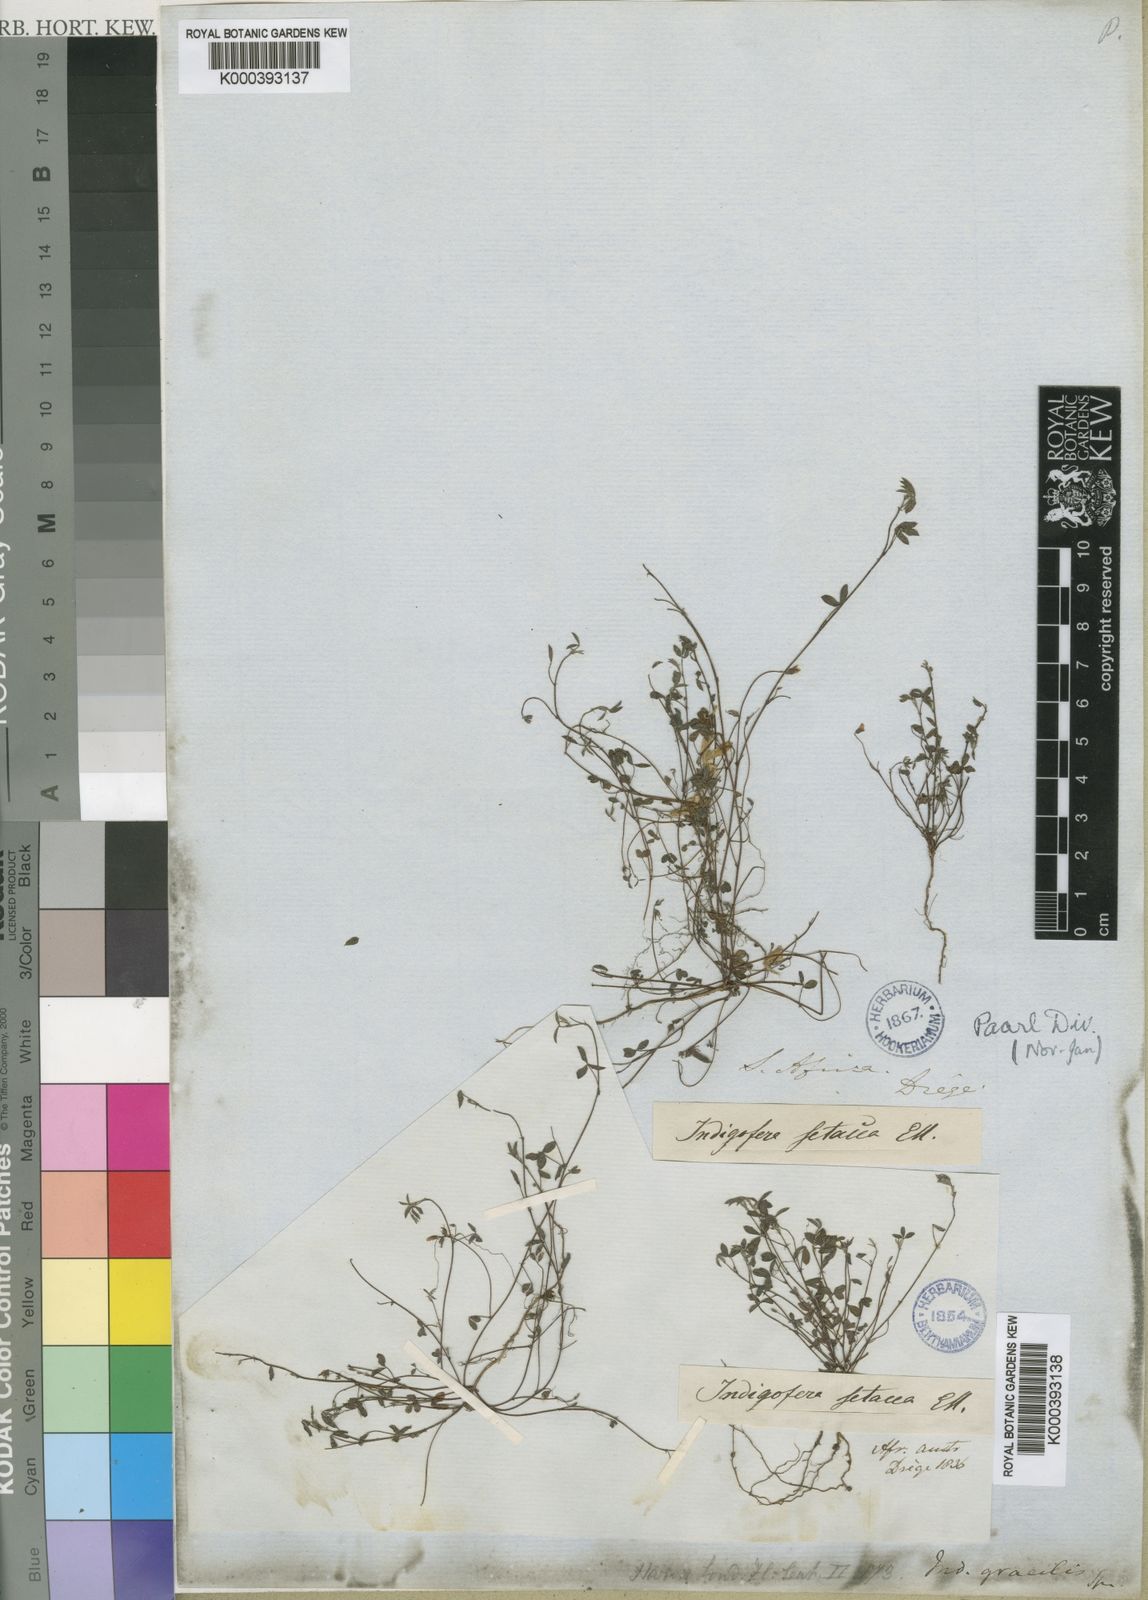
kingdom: Plantae
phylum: Tracheophyta
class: Magnoliopsida
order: Fabales
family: Fabaceae
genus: Indigofera
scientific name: Indigofera gracilis
